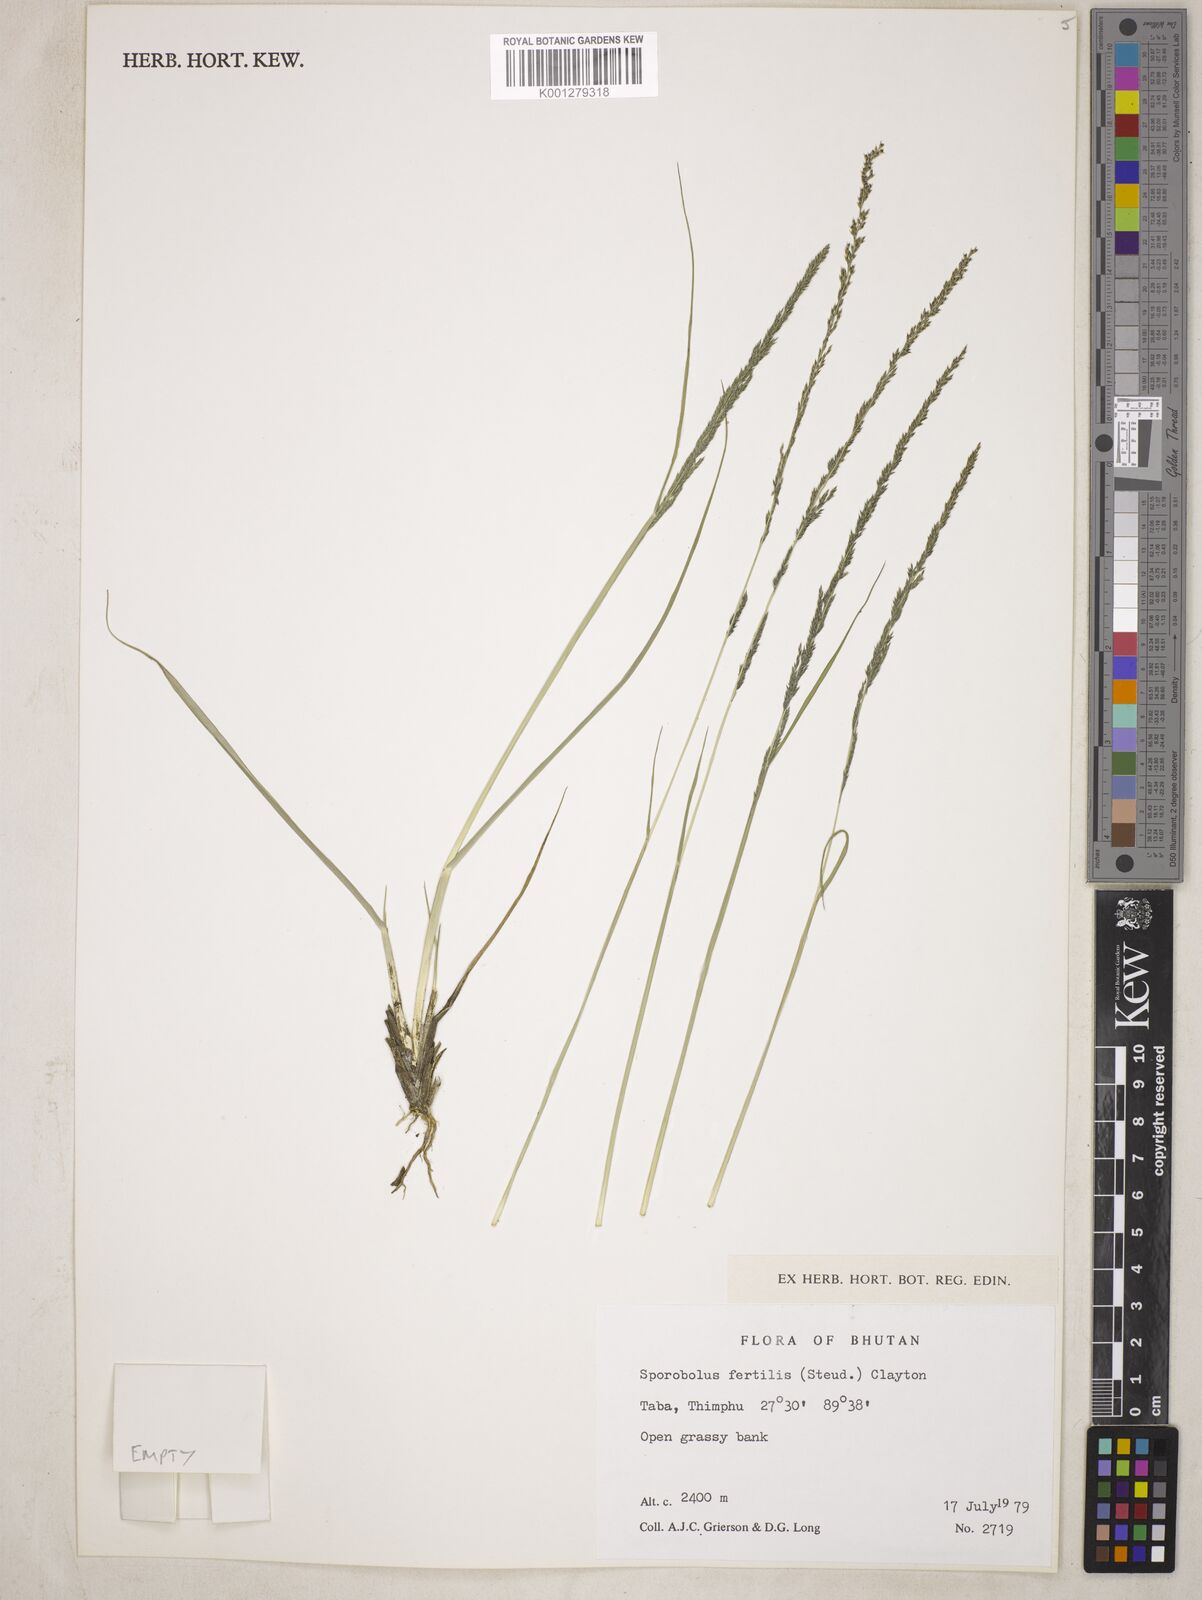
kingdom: Plantae
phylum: Tracheophyta
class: Liliopsida
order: Poales
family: Poaceae
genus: Sporobolus
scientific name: Sporobolus fertilis
